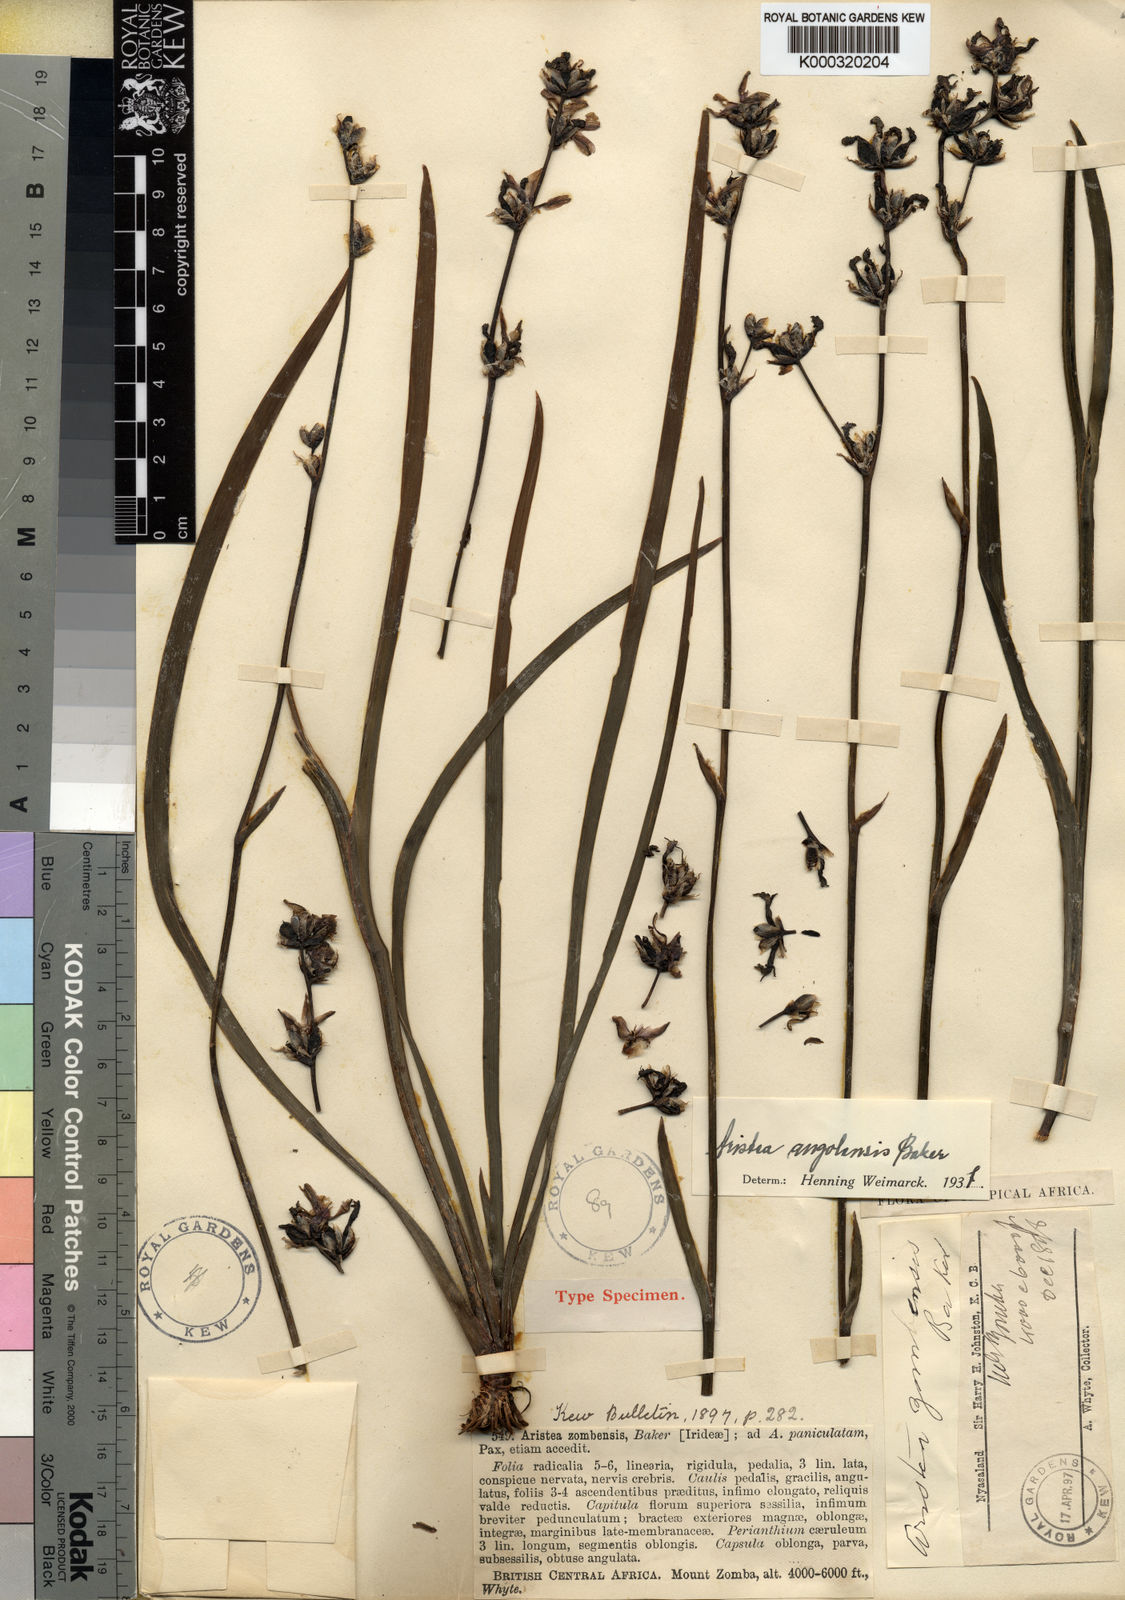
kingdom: Plantae
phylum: Tracheophyta
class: Liliopsida
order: Asparagales
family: Iridaceae
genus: Aristea
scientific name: Aristea angolensis
